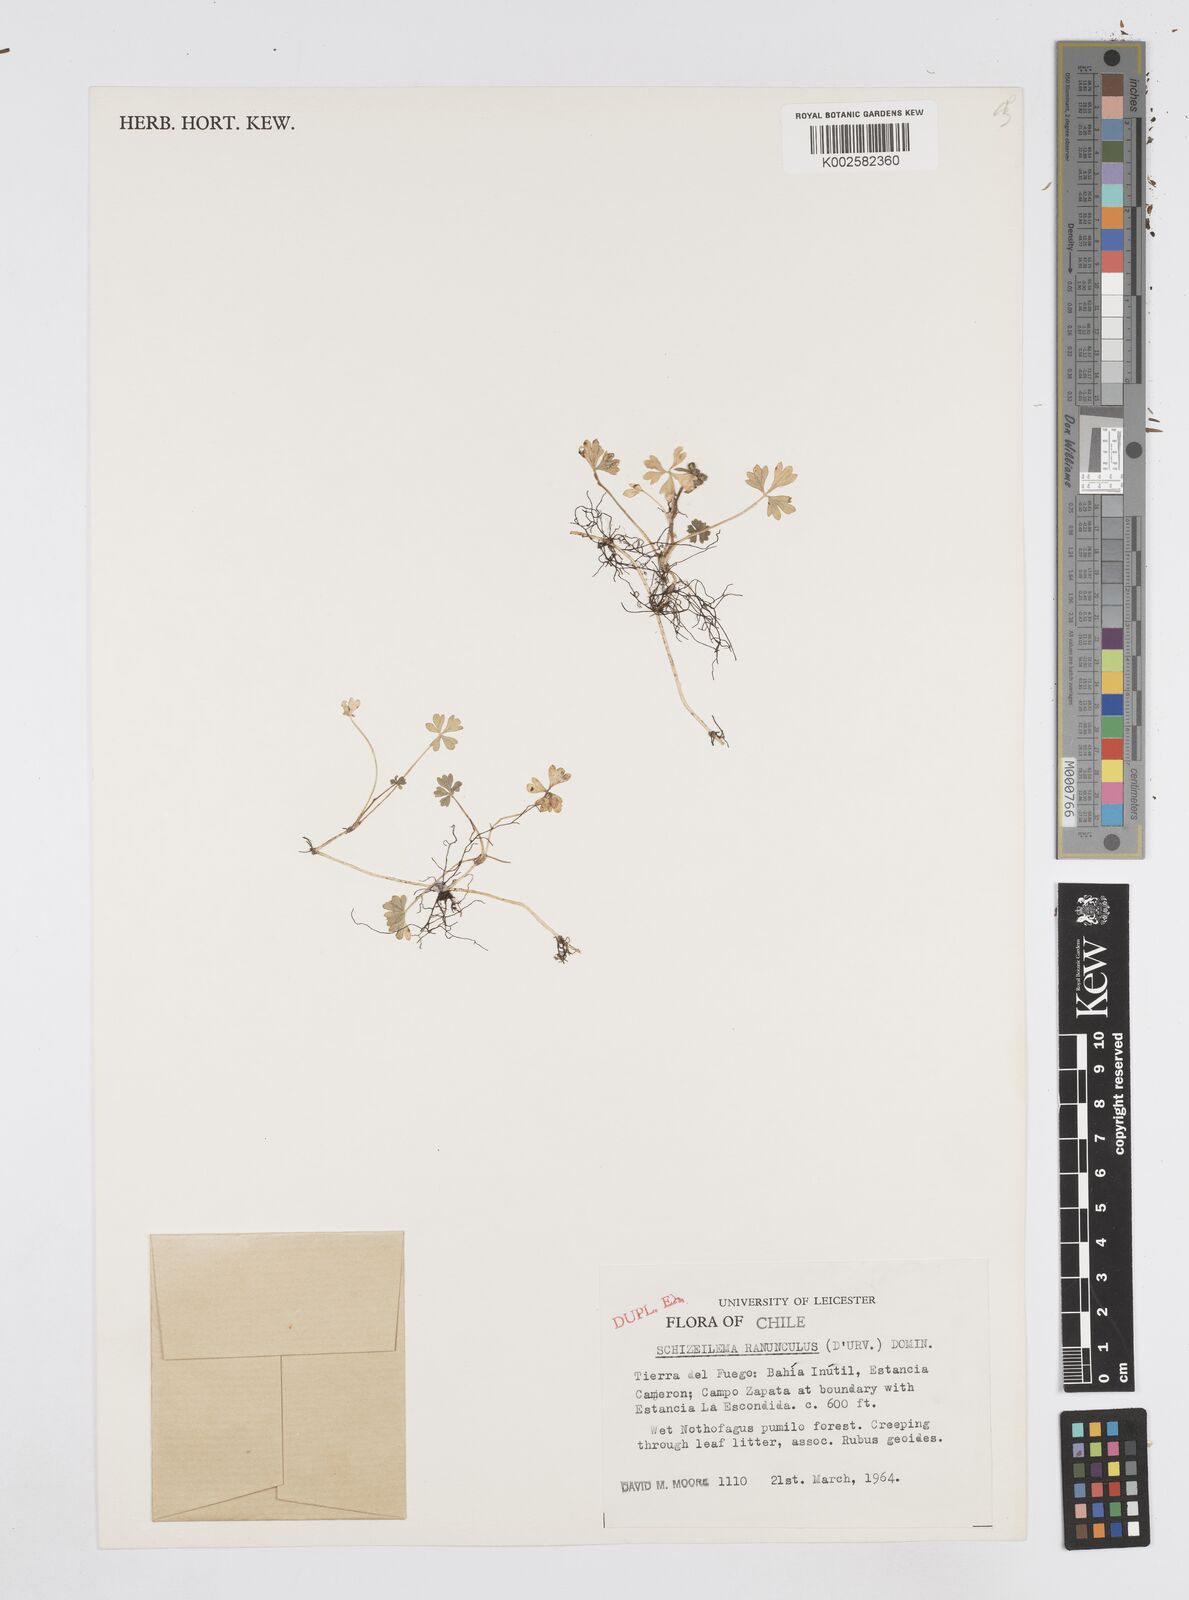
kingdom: Plantae
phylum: Tracheophyta
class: Magnoliopsida
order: Apiales
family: Apiaceae
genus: Azorella
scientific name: Azorella ranunculus
